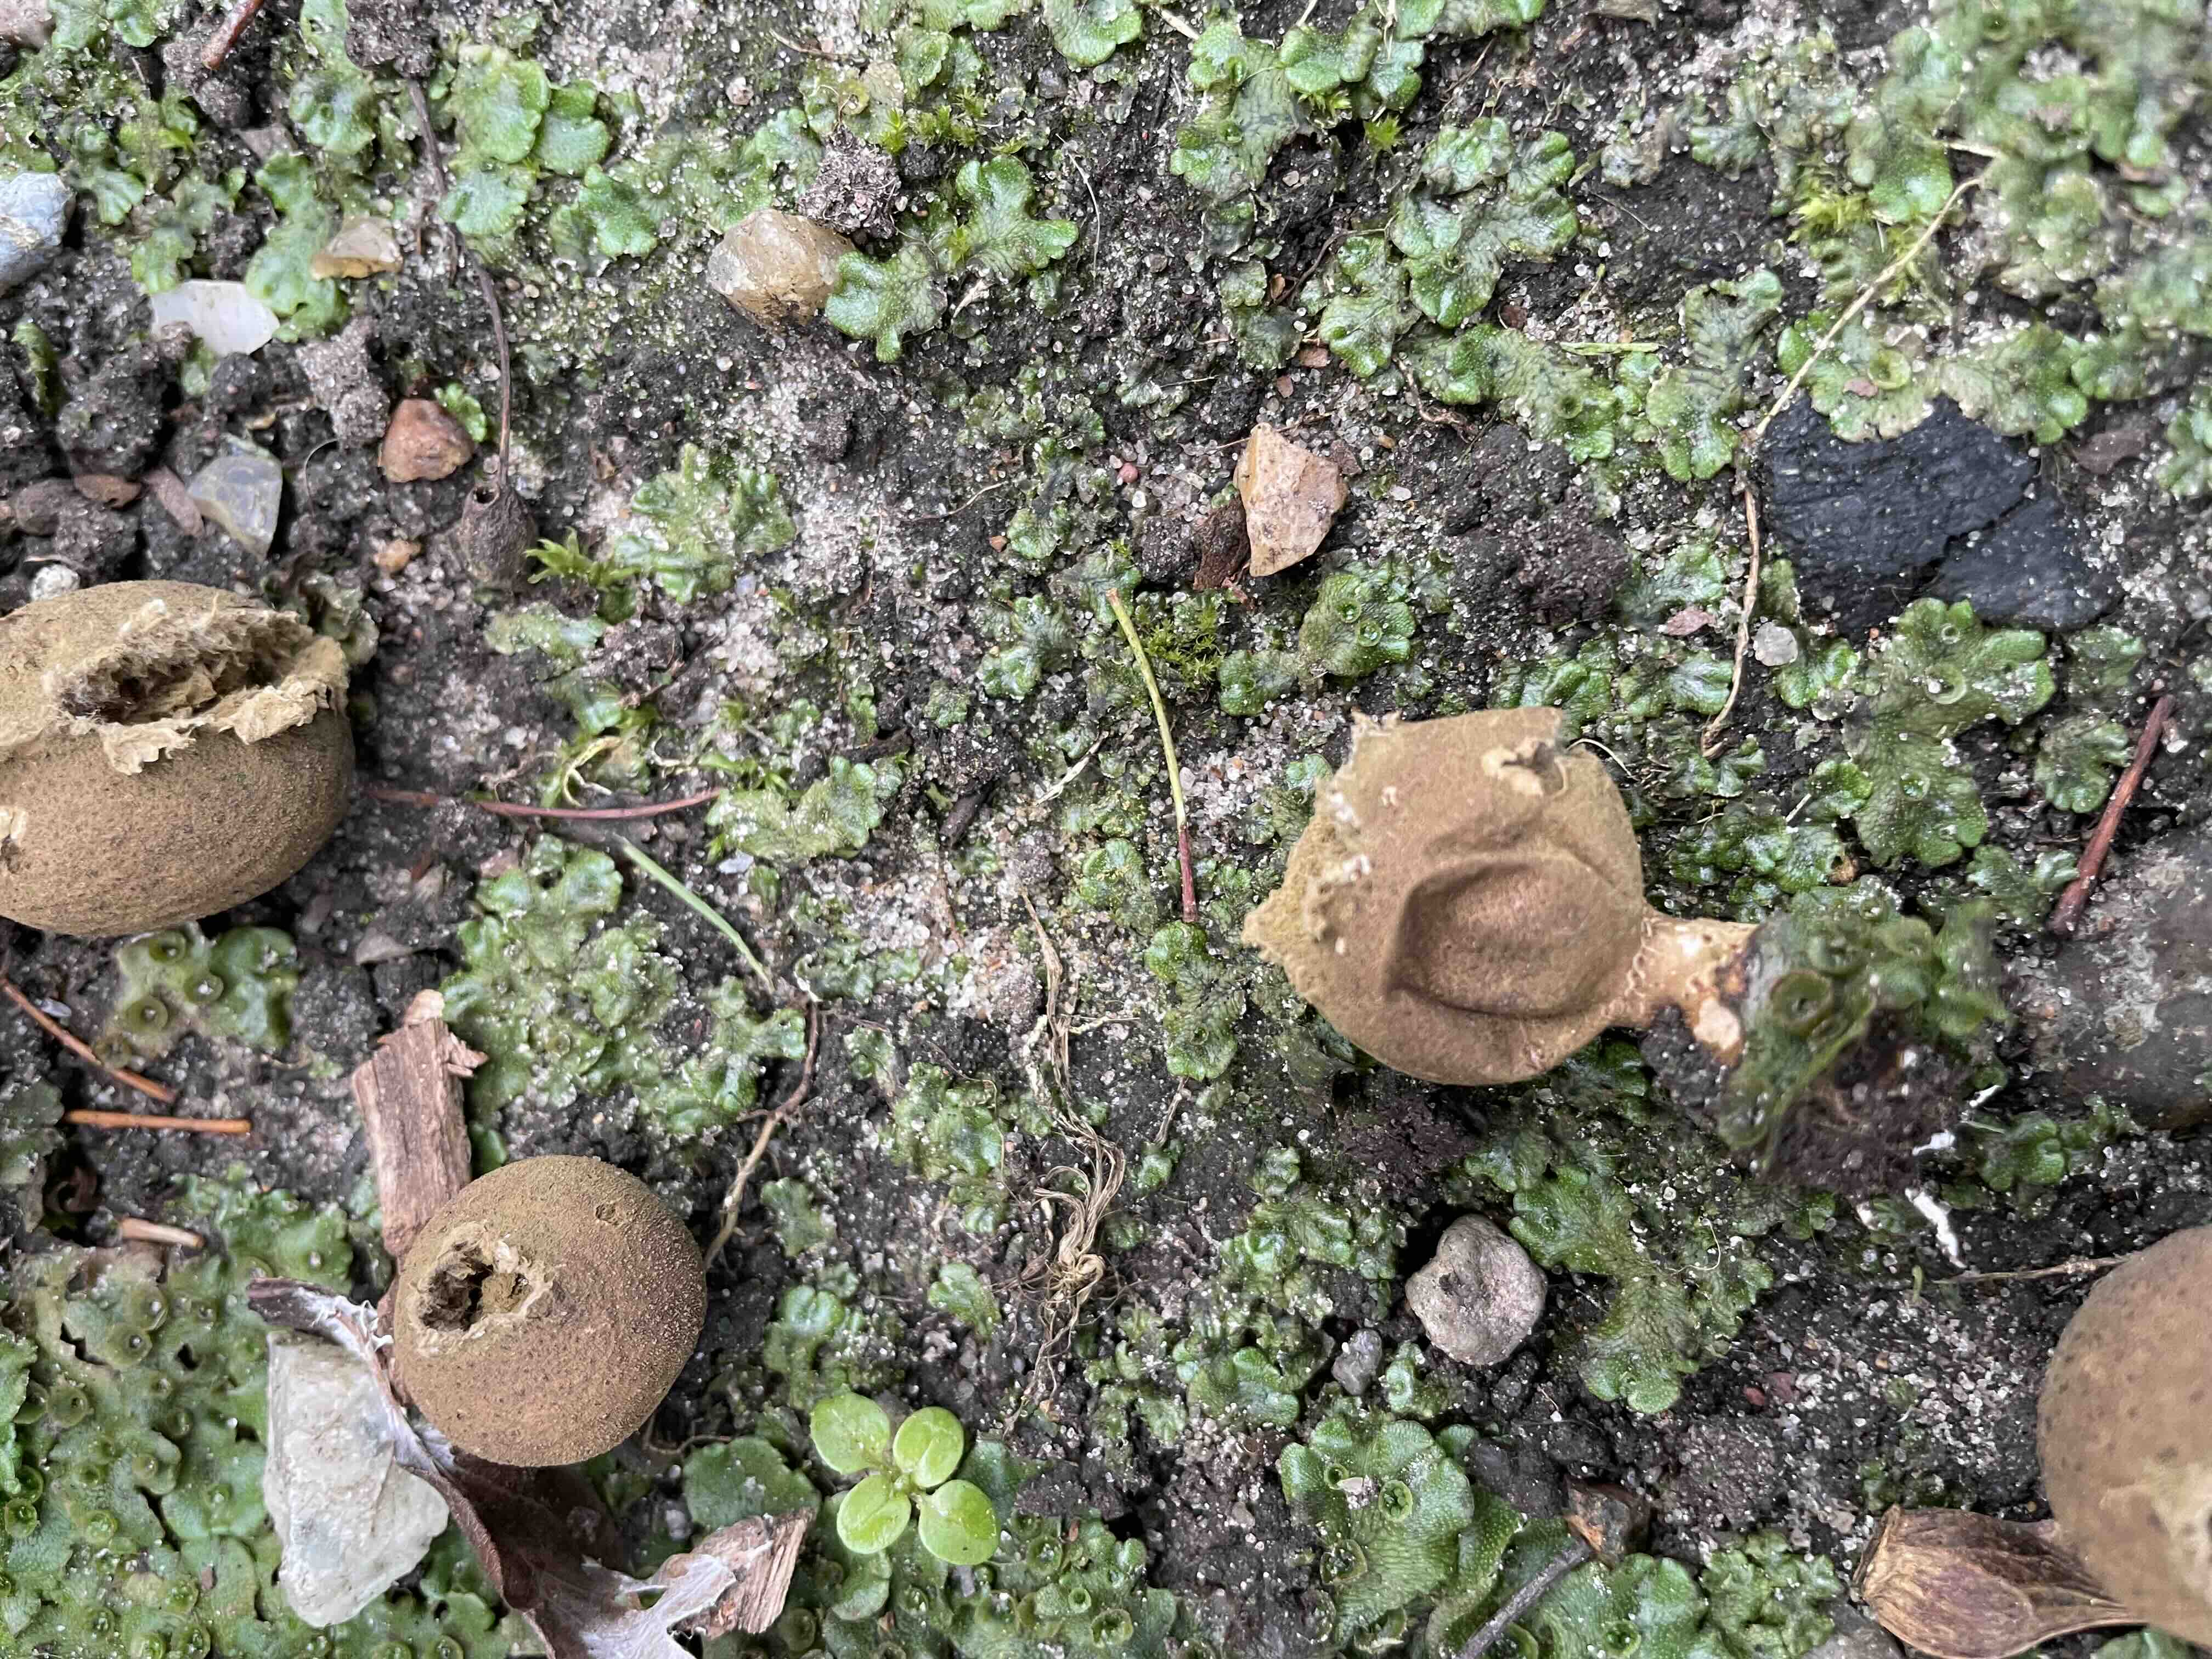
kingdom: Fungi
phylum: Basidiomycota
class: Agaricomycetes
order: Agaricales
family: Agaricaceae
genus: Lycoperdon
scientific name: Lycoperdon
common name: støvbold
